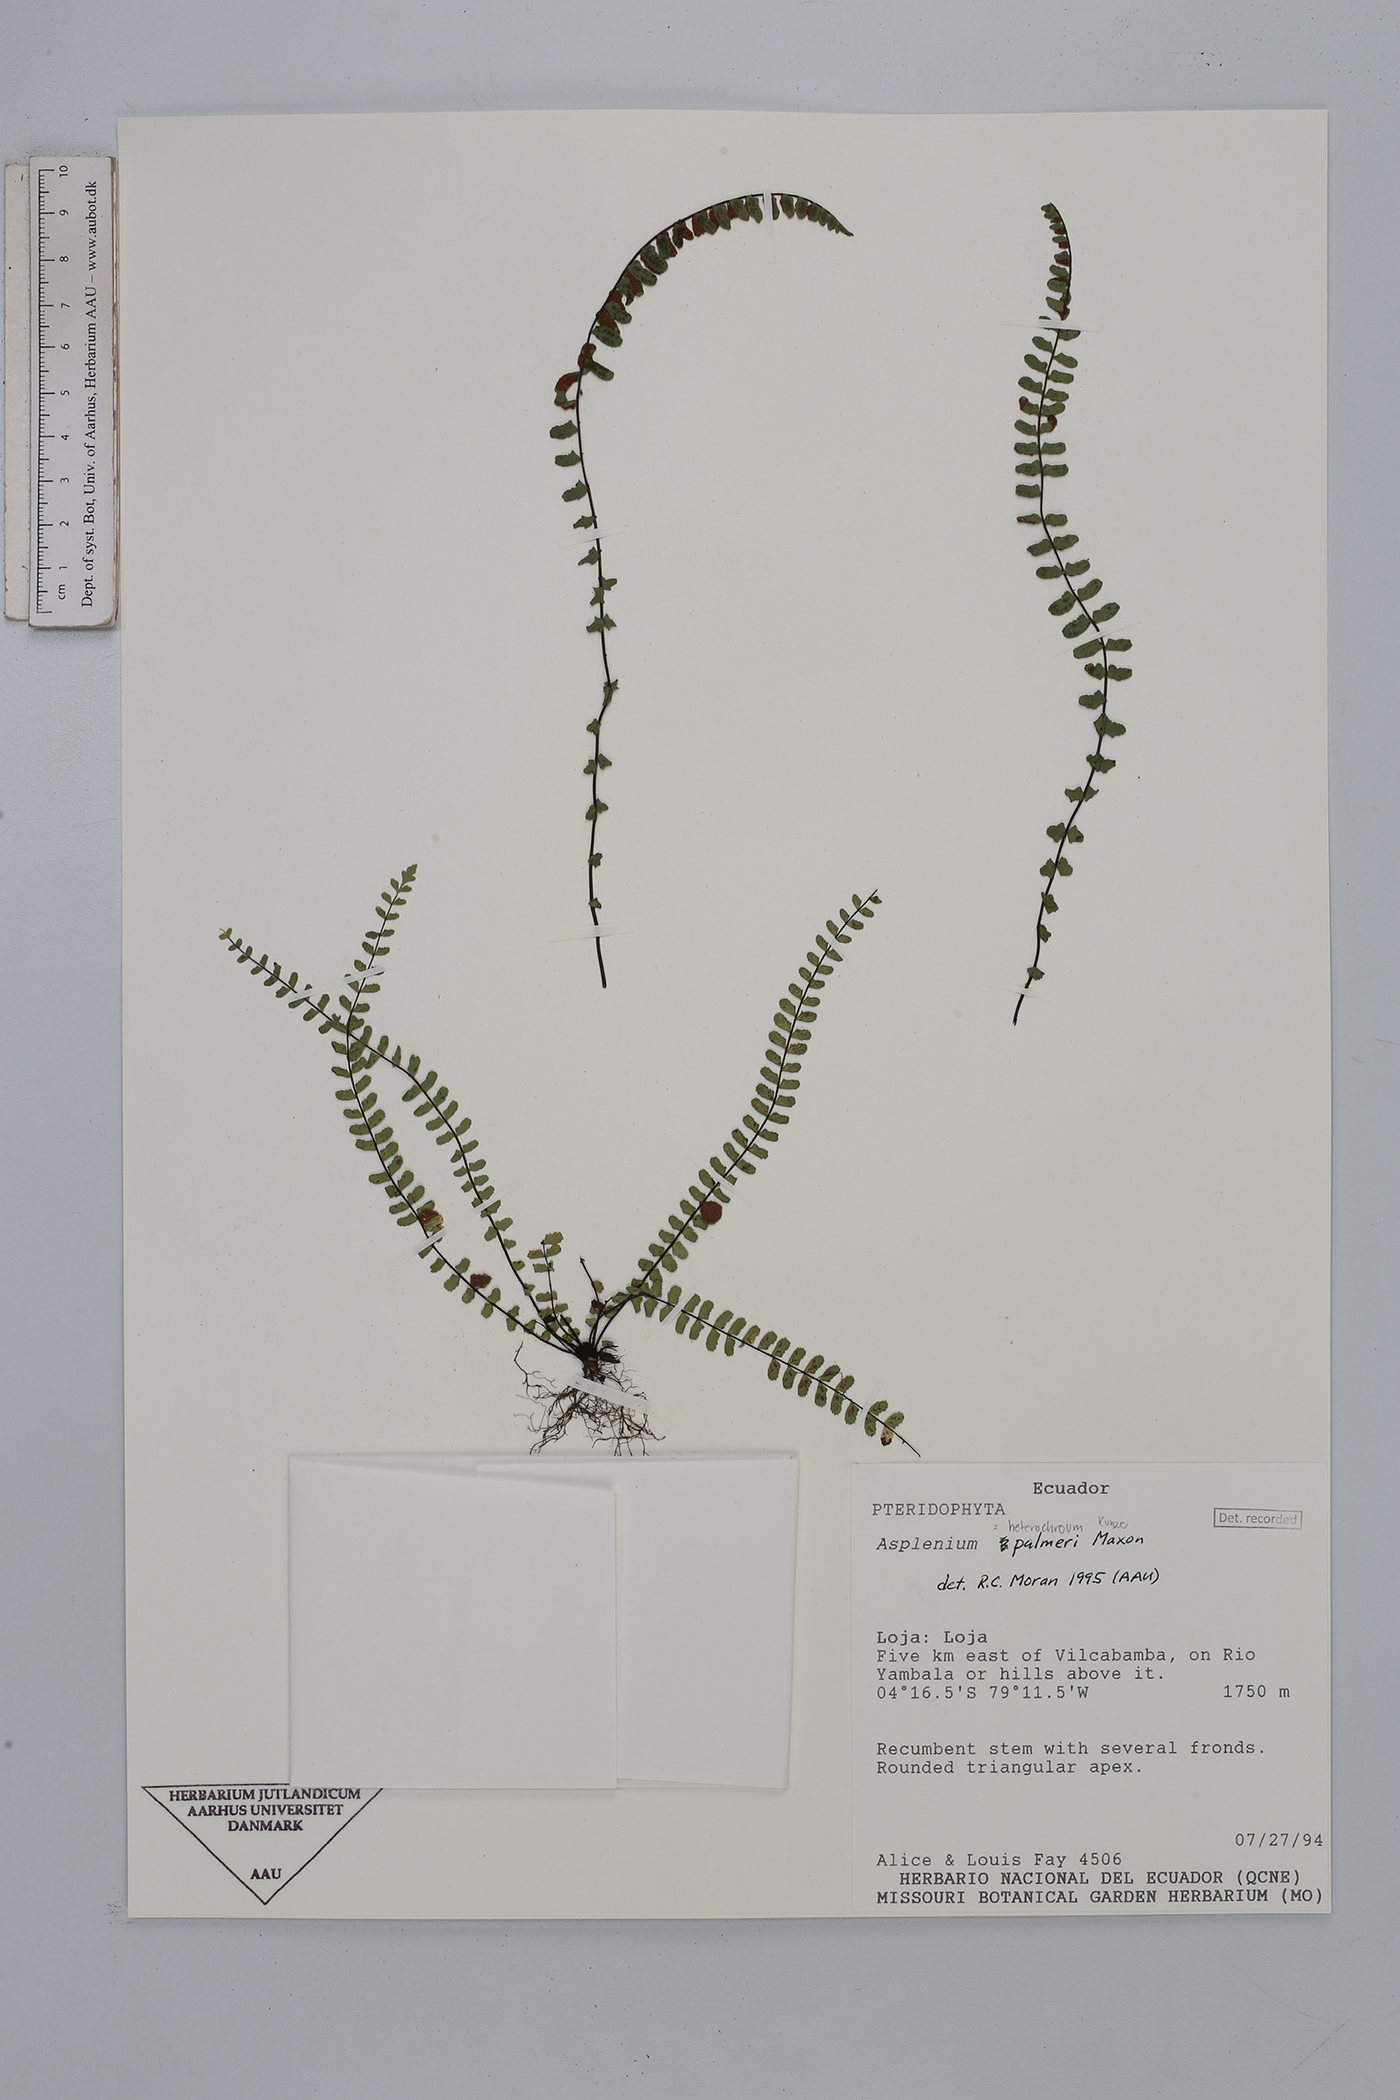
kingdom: Plantae
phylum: Tracheophyta
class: Polypodiopsida
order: Polypodiales
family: Aspleniaceae
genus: Asplenium
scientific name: Asplenium heterochroum
